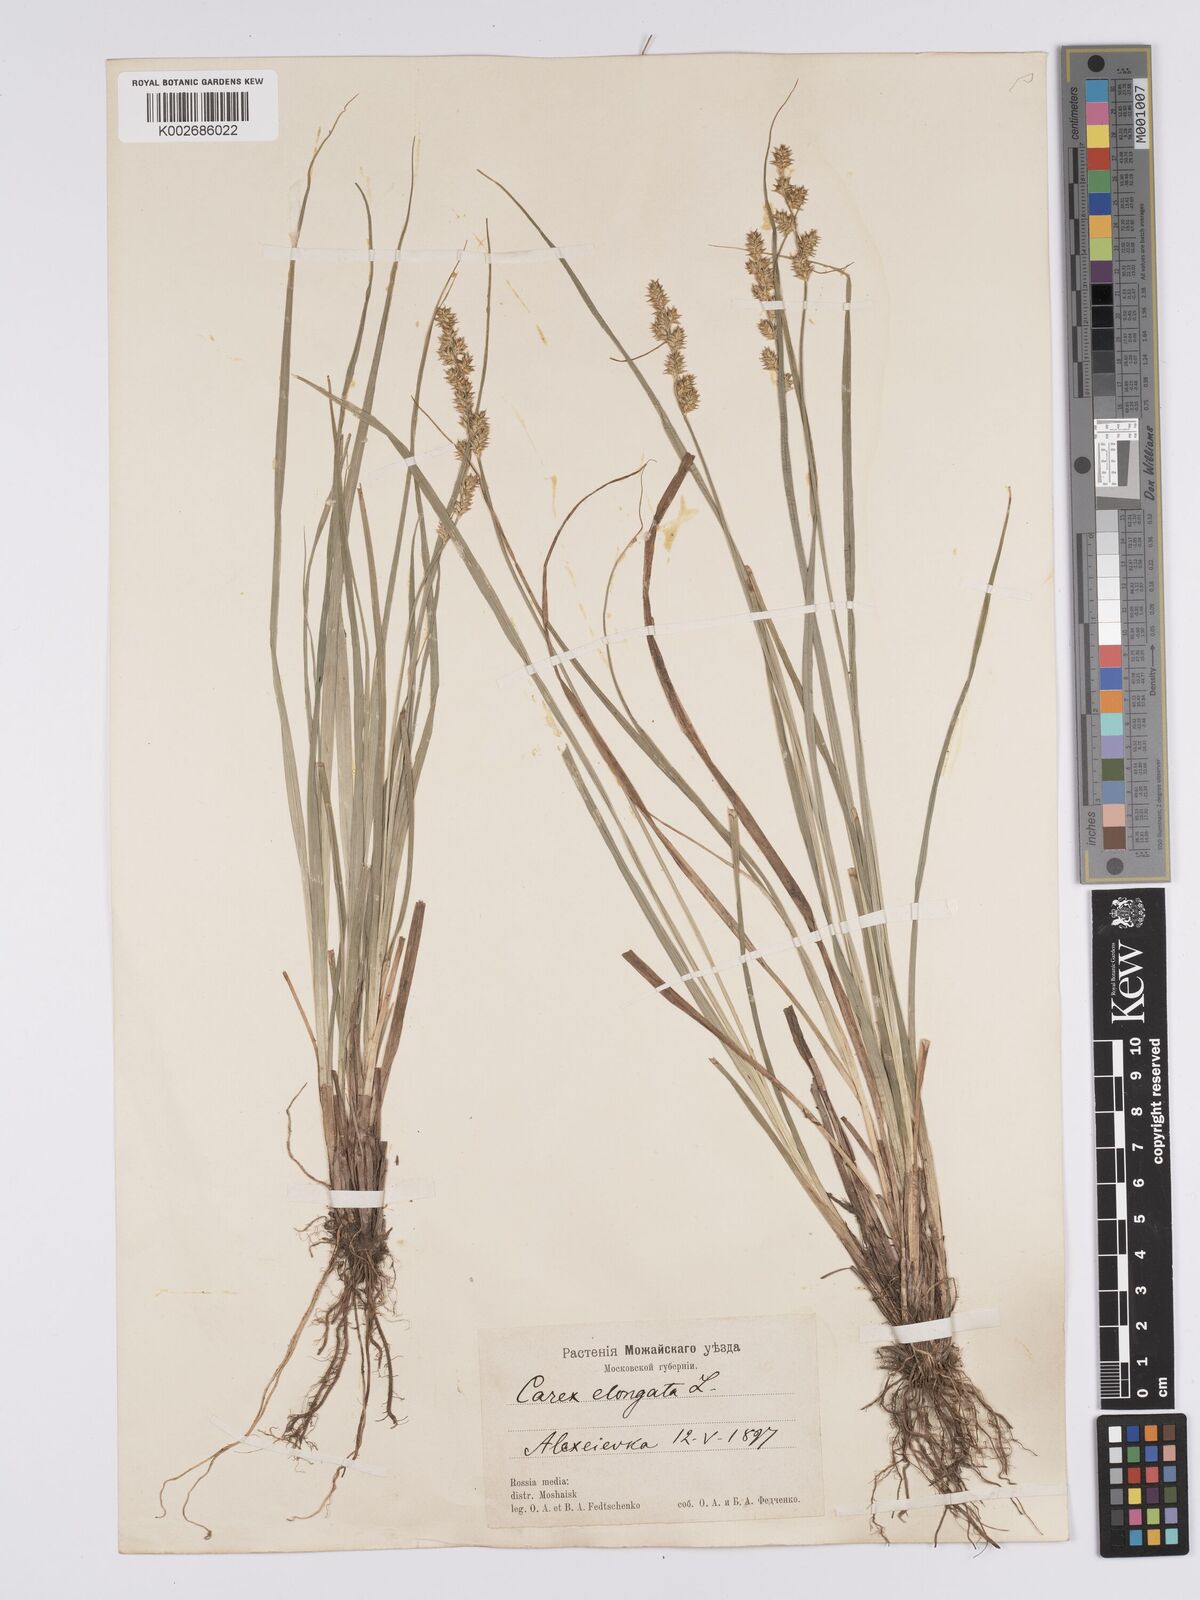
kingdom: Plantae
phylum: Tracheophyta
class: Liliopsida
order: Poales
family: Cyperaceae
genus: Carex
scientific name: Carex elongata
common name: Elongated sedge
